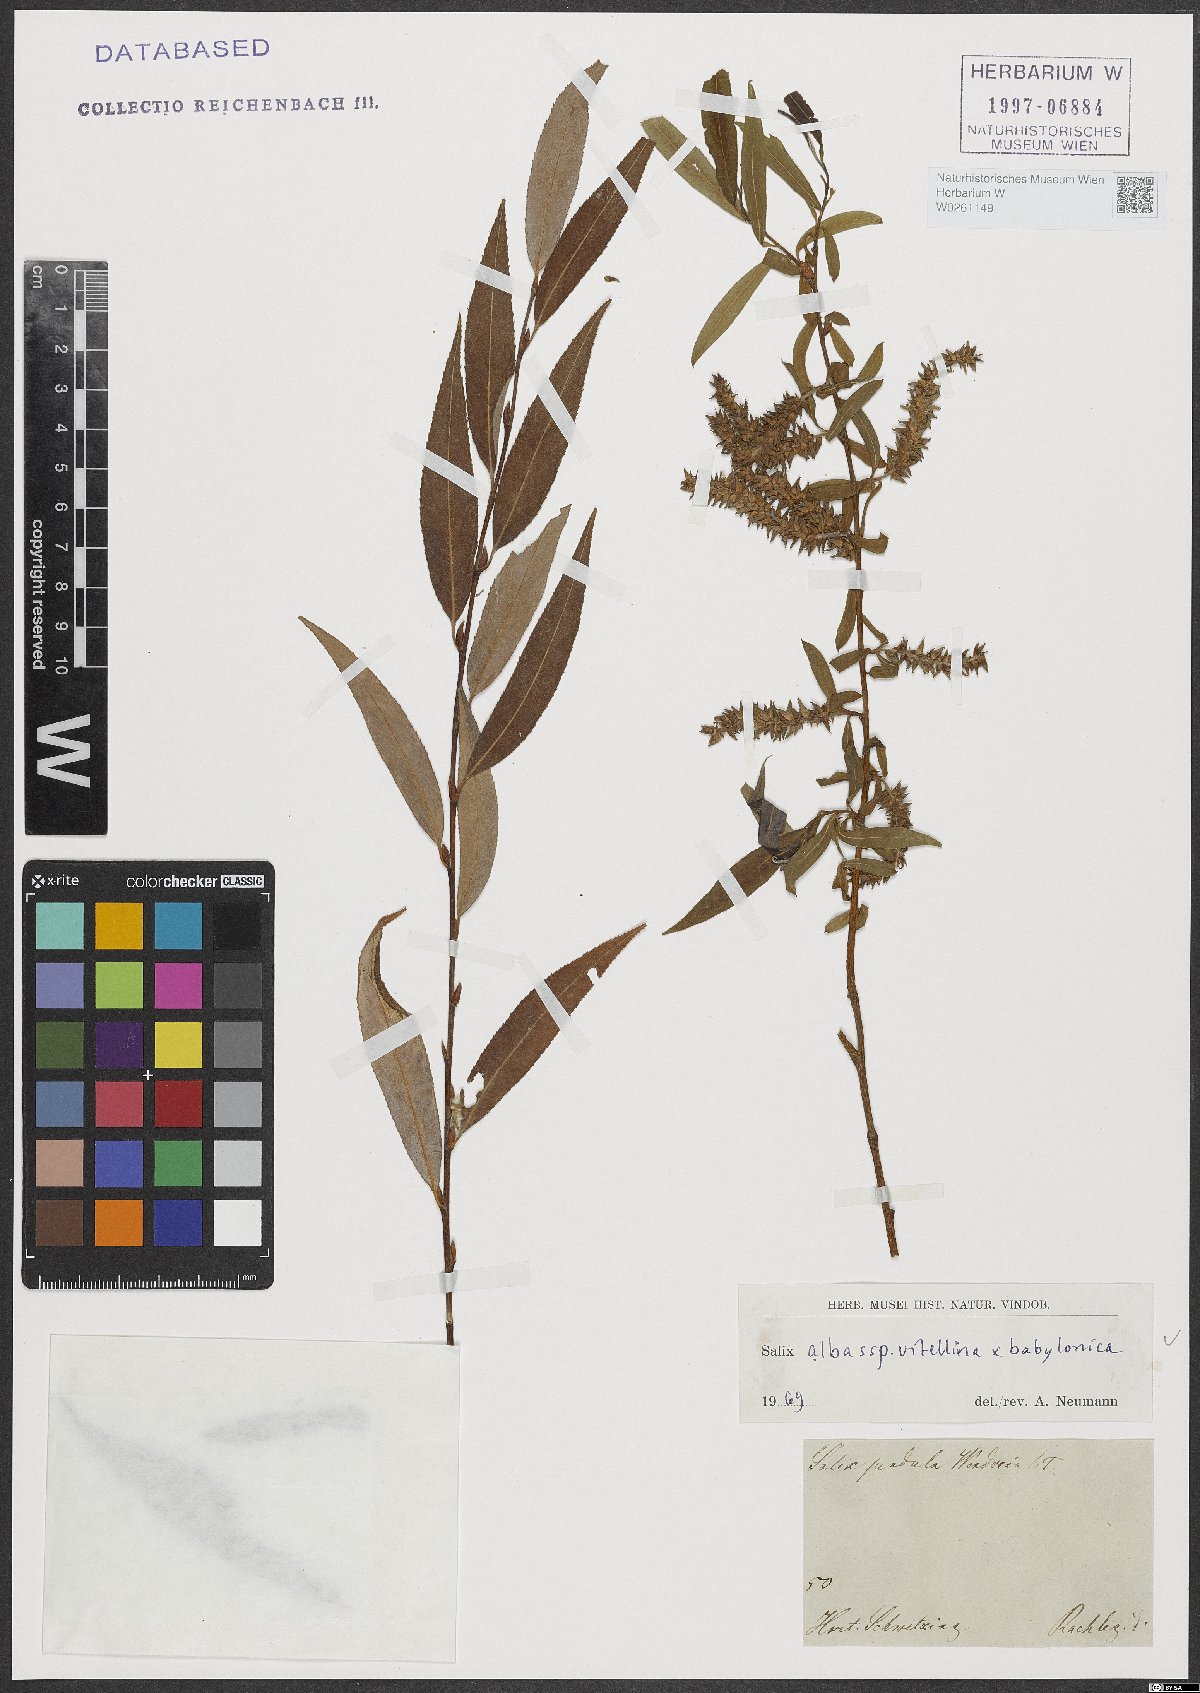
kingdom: Plantae
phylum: Tracheophyta
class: Magnoliopsida
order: Malpighiales
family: Salicaceae
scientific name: Salicaceae
